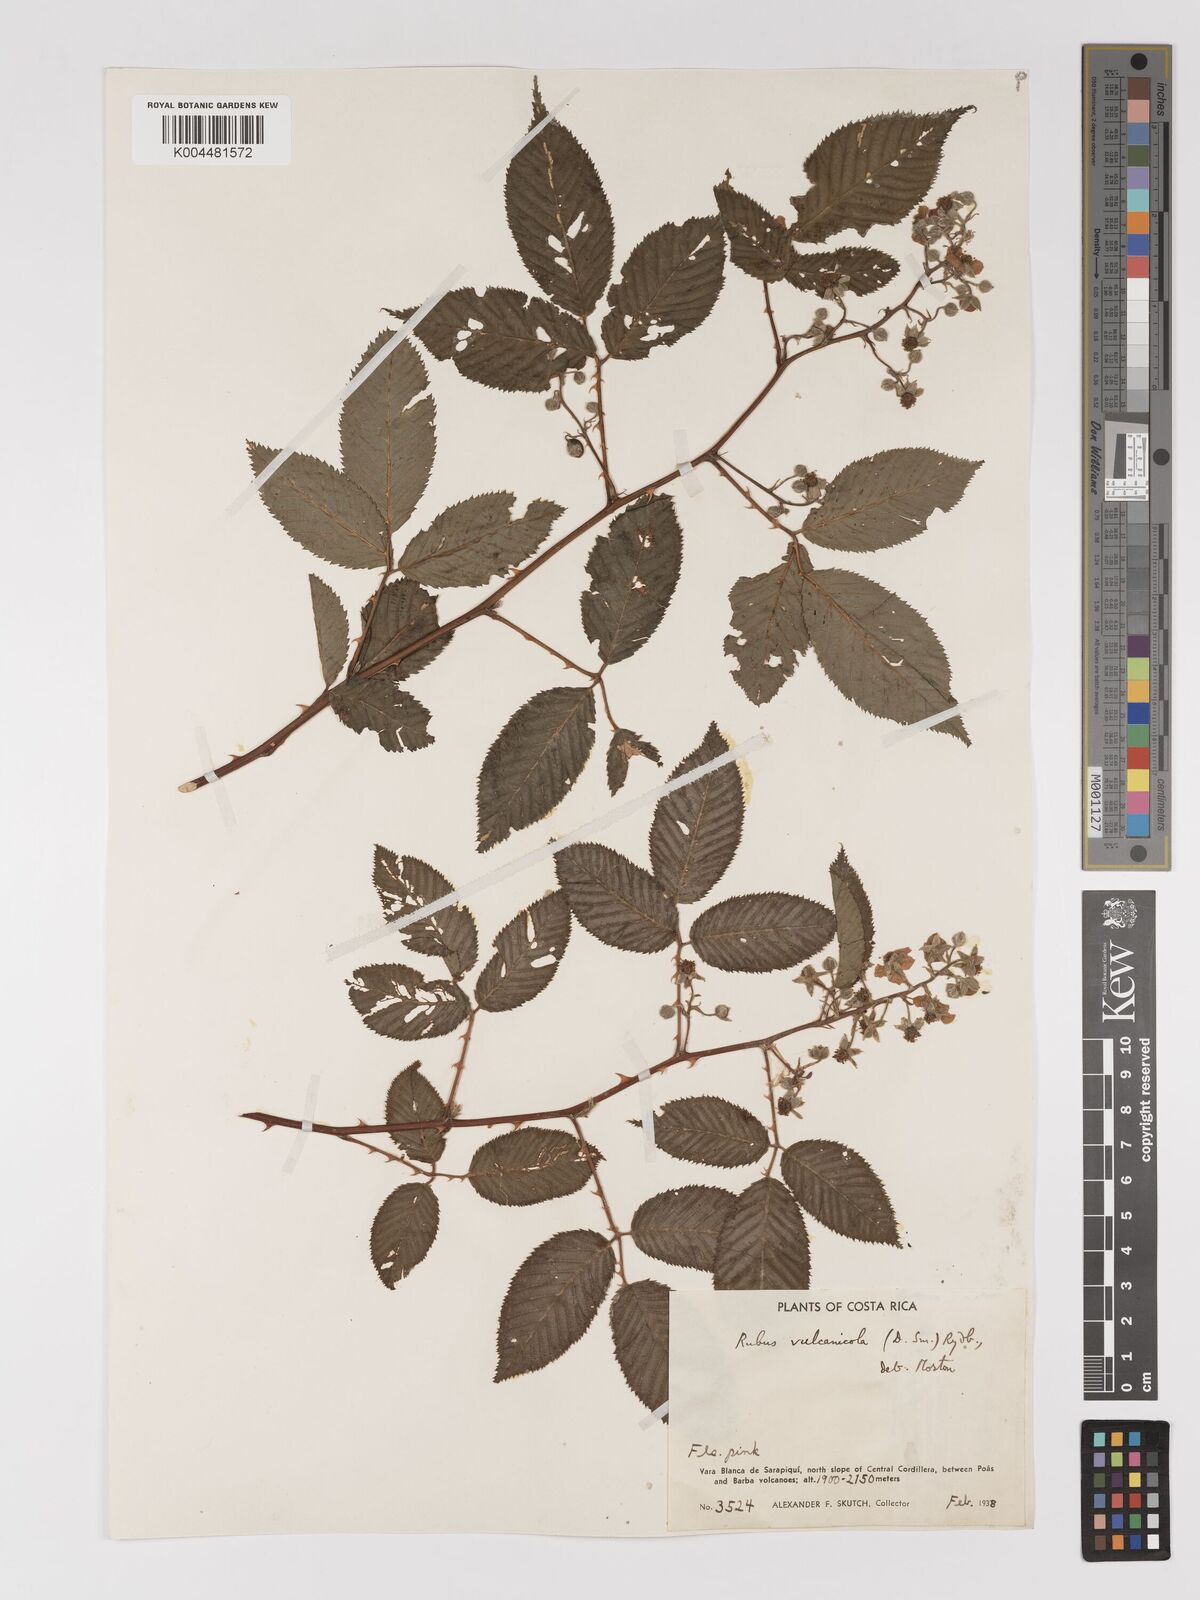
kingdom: Plantae
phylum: Tracheophyta
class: Magnoliopsida
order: Rosales
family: Rosaceae
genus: Rubus
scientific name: Rubus miser
